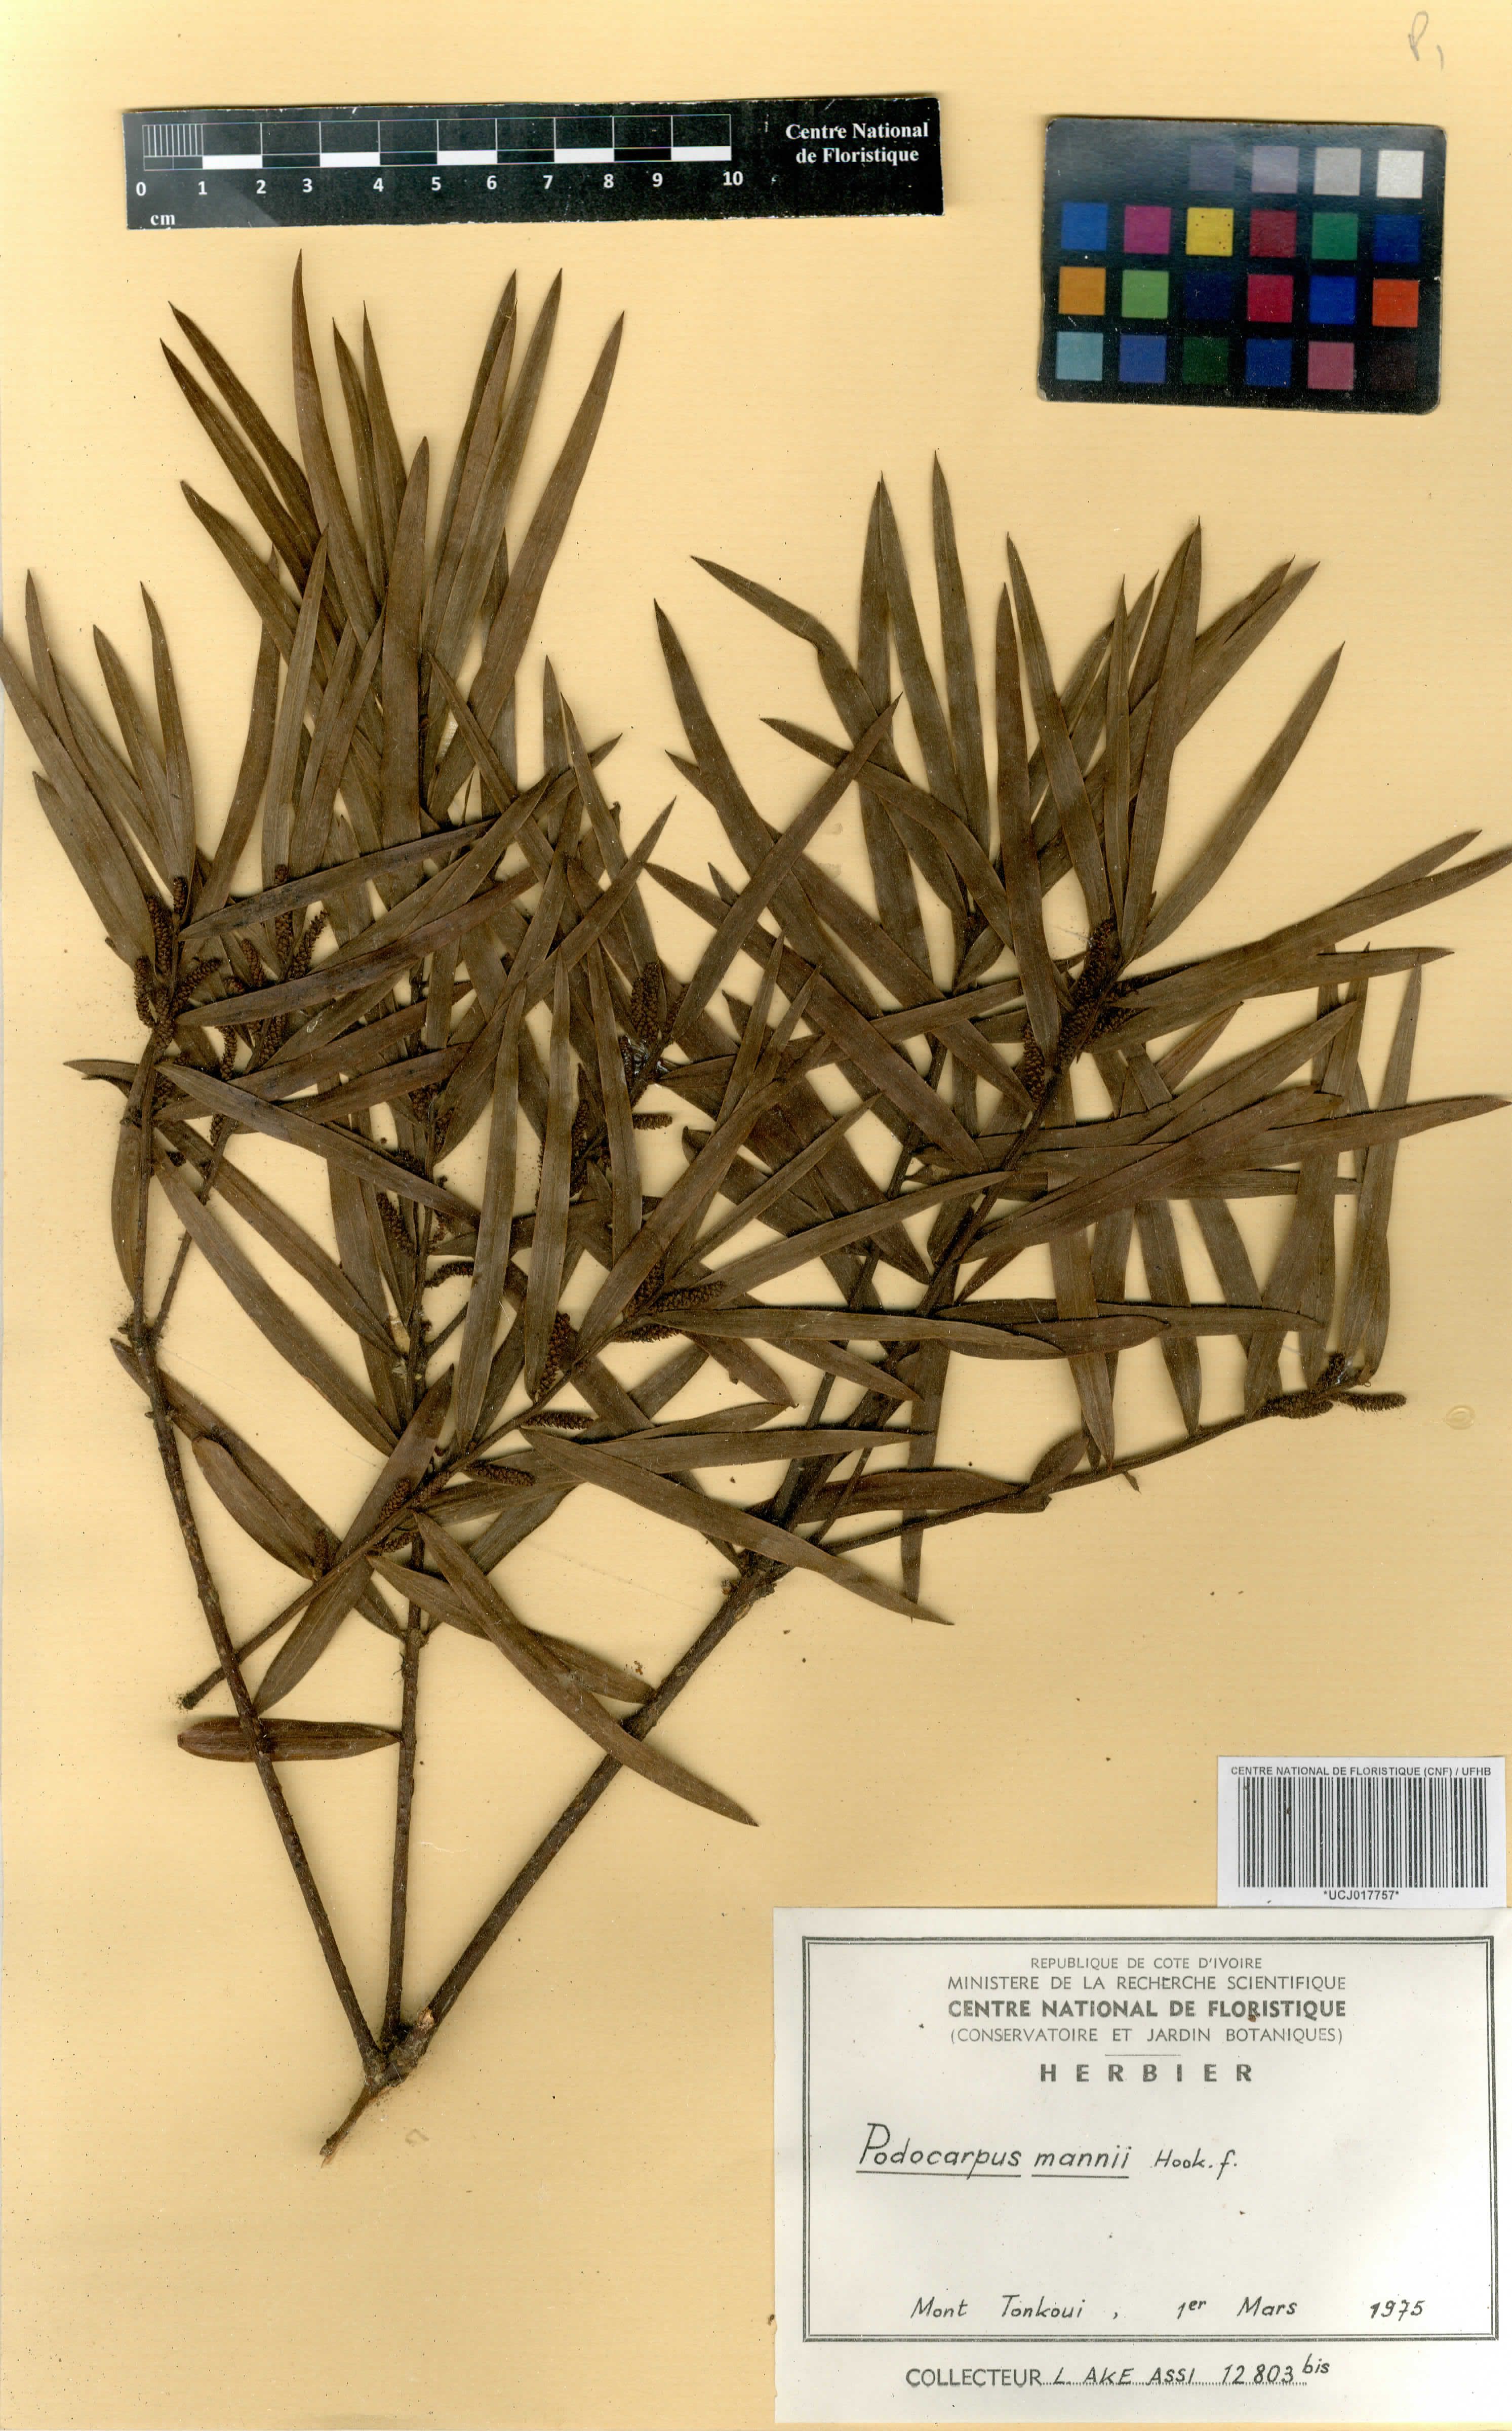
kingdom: Plantae
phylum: Tracheophyta
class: Pinopsida
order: Pinales
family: Podocarpaceae
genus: Afrocarpus
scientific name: Afrocarpus mannii
